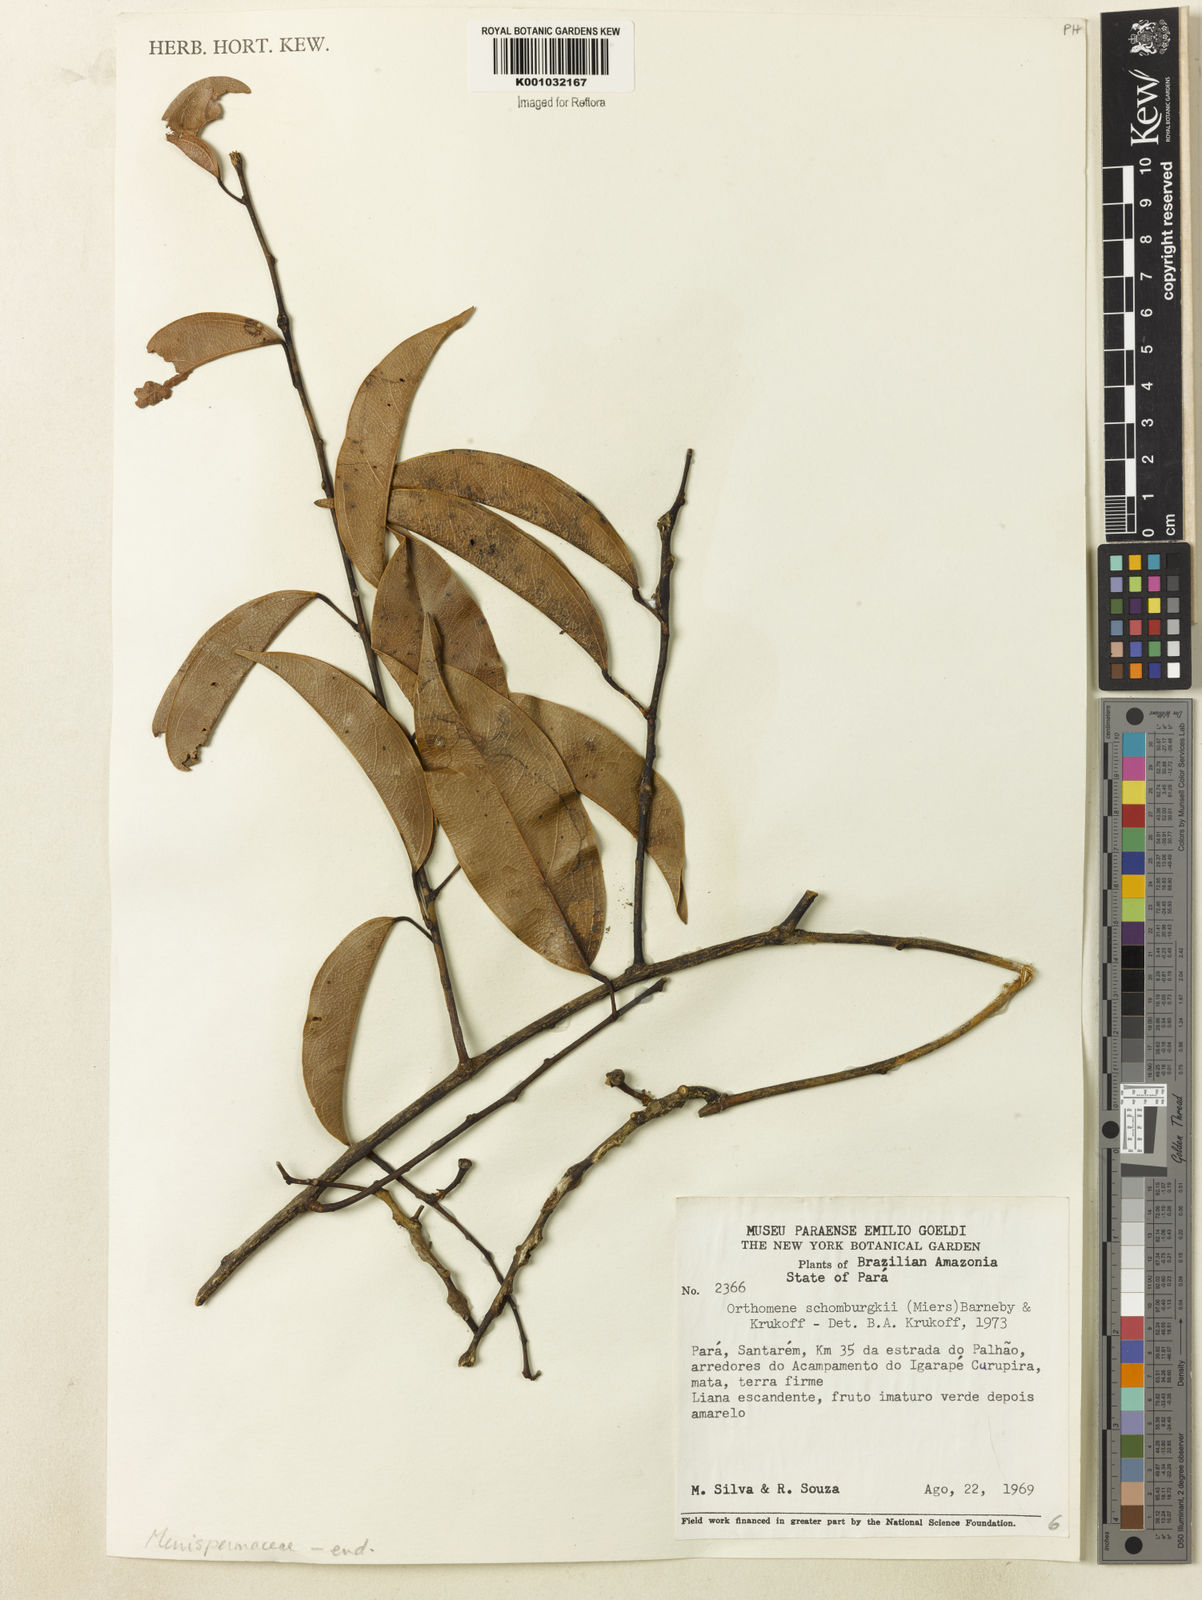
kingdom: Plantae
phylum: Tracheophyta
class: Magnoliopsida
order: Ranunculales
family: Menispermaceae
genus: Orthomene
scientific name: Orthomene schomburgkii
